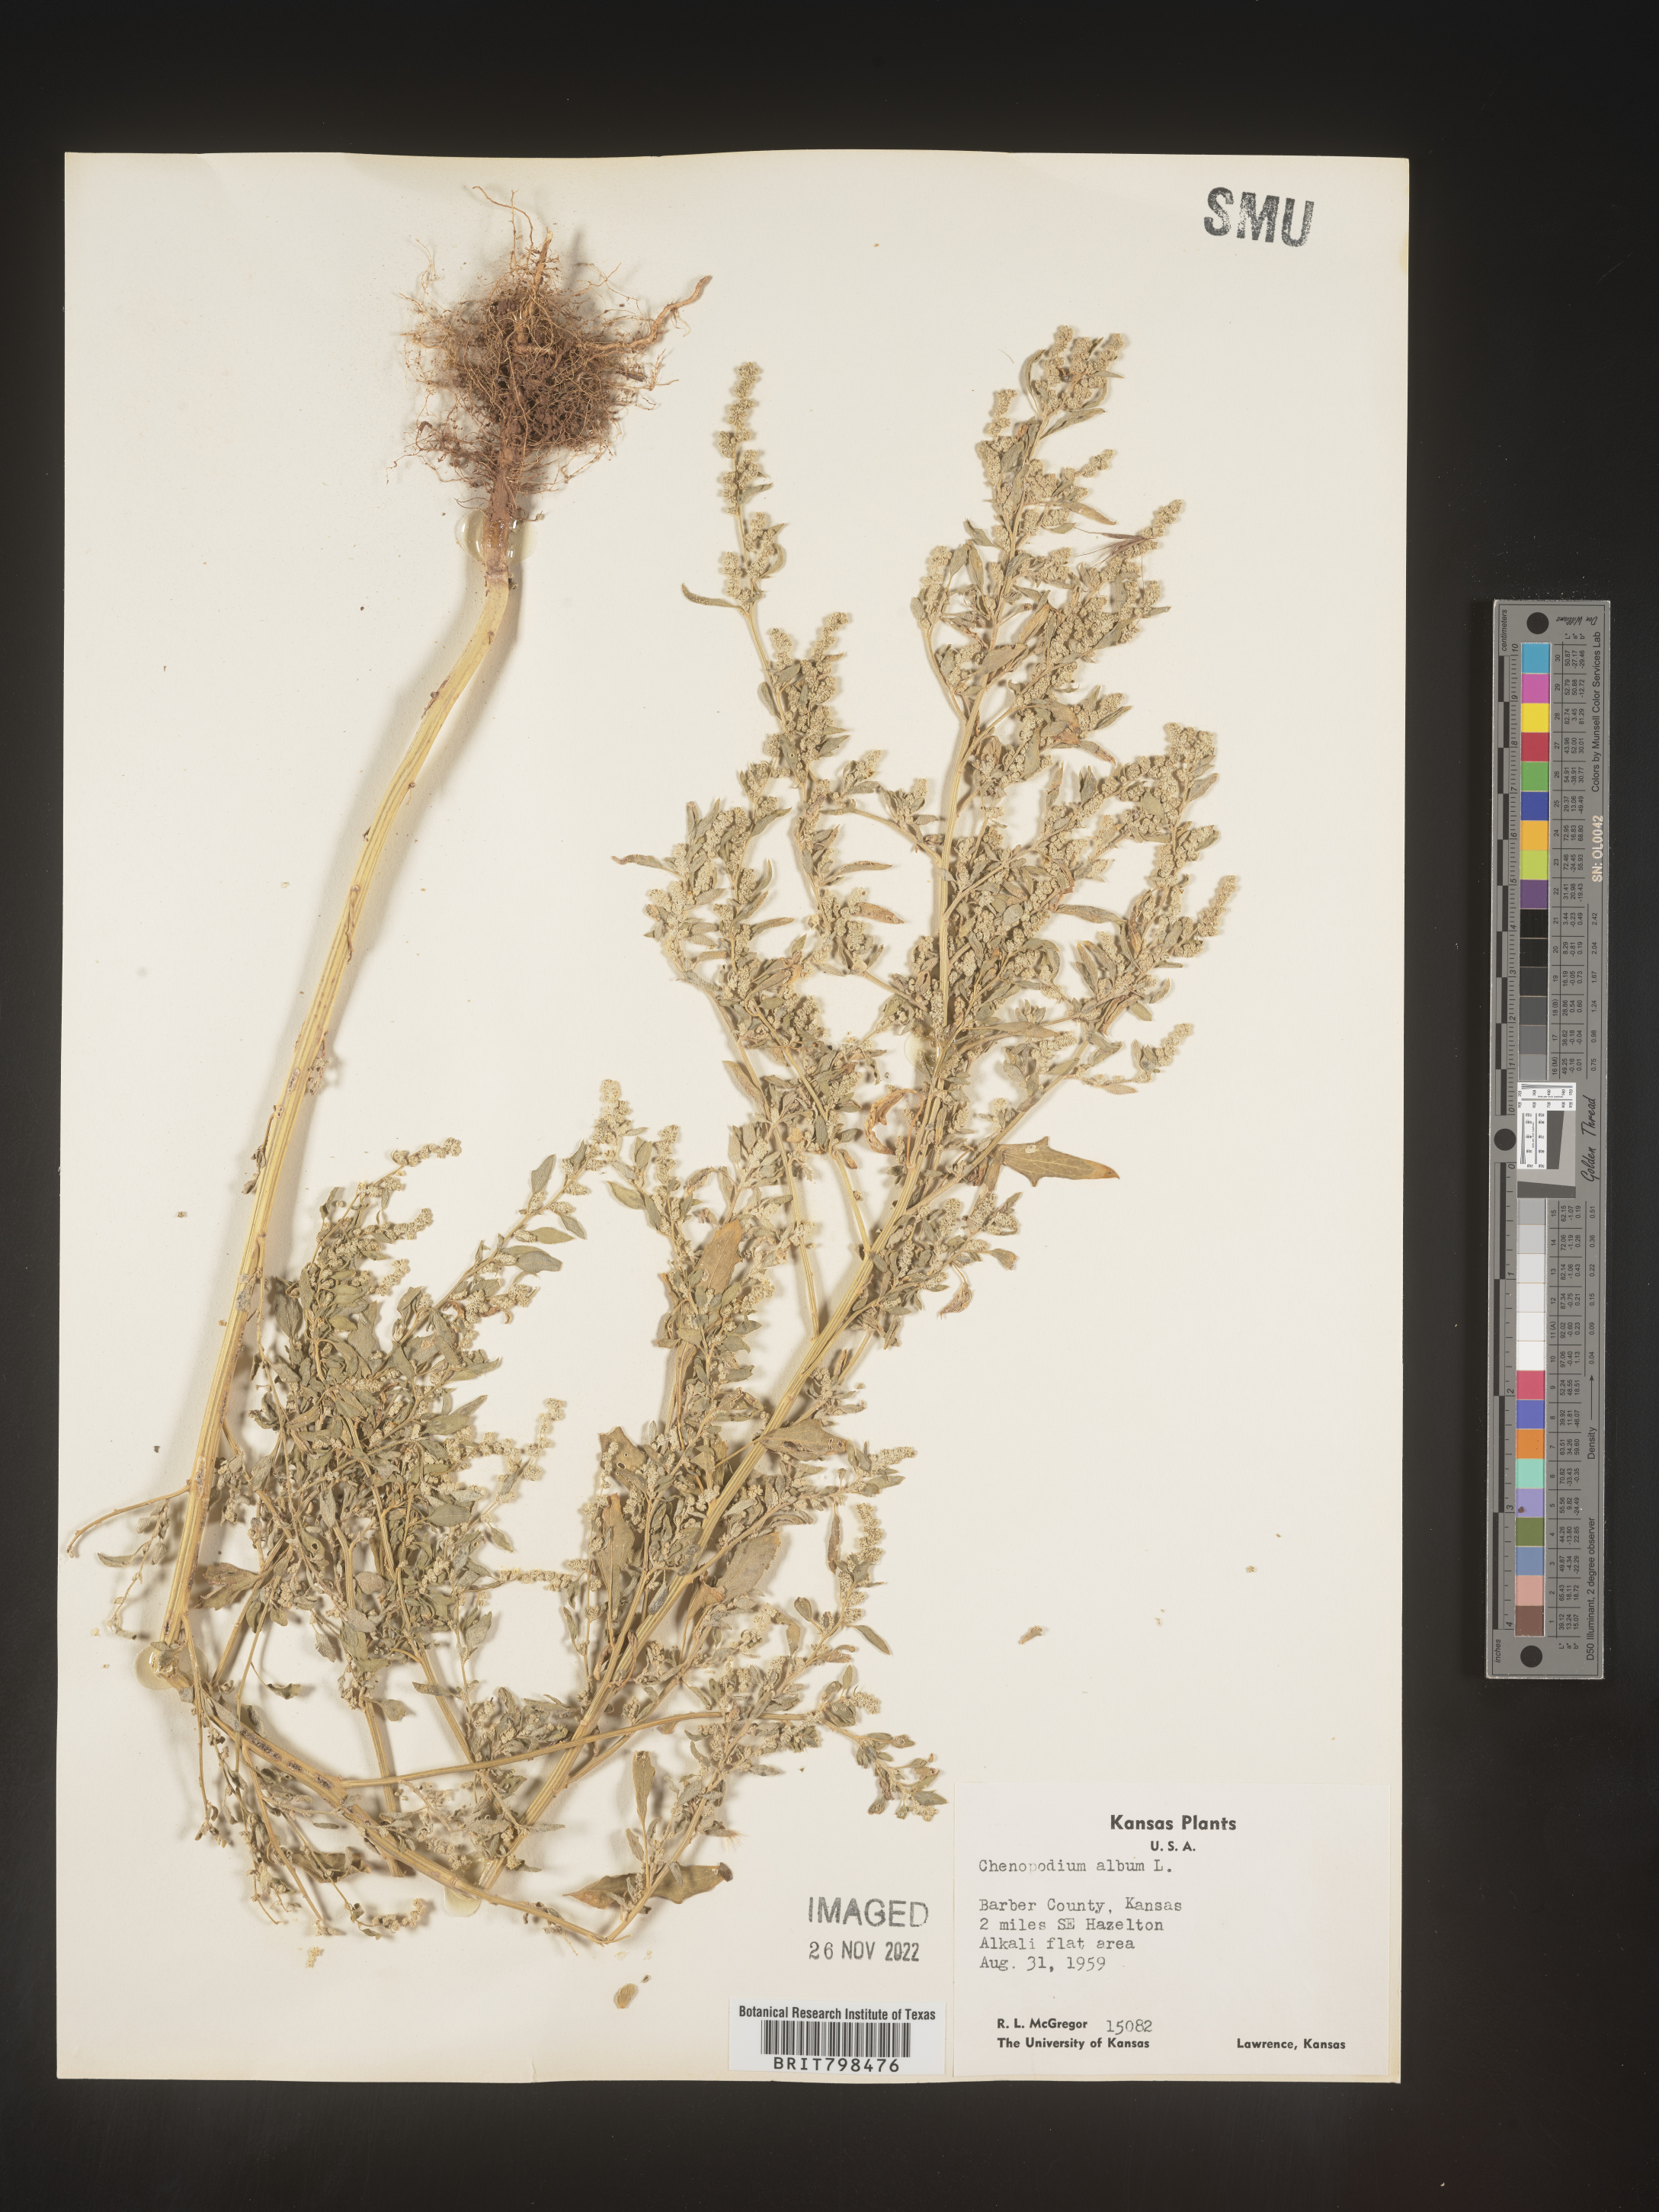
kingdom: Plantae
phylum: Tracheophyta
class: Magnoliopsida
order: Caryophyllales
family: Amaranthaceae
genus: Chenopodium
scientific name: Chenopodium album
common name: Fat-hen
